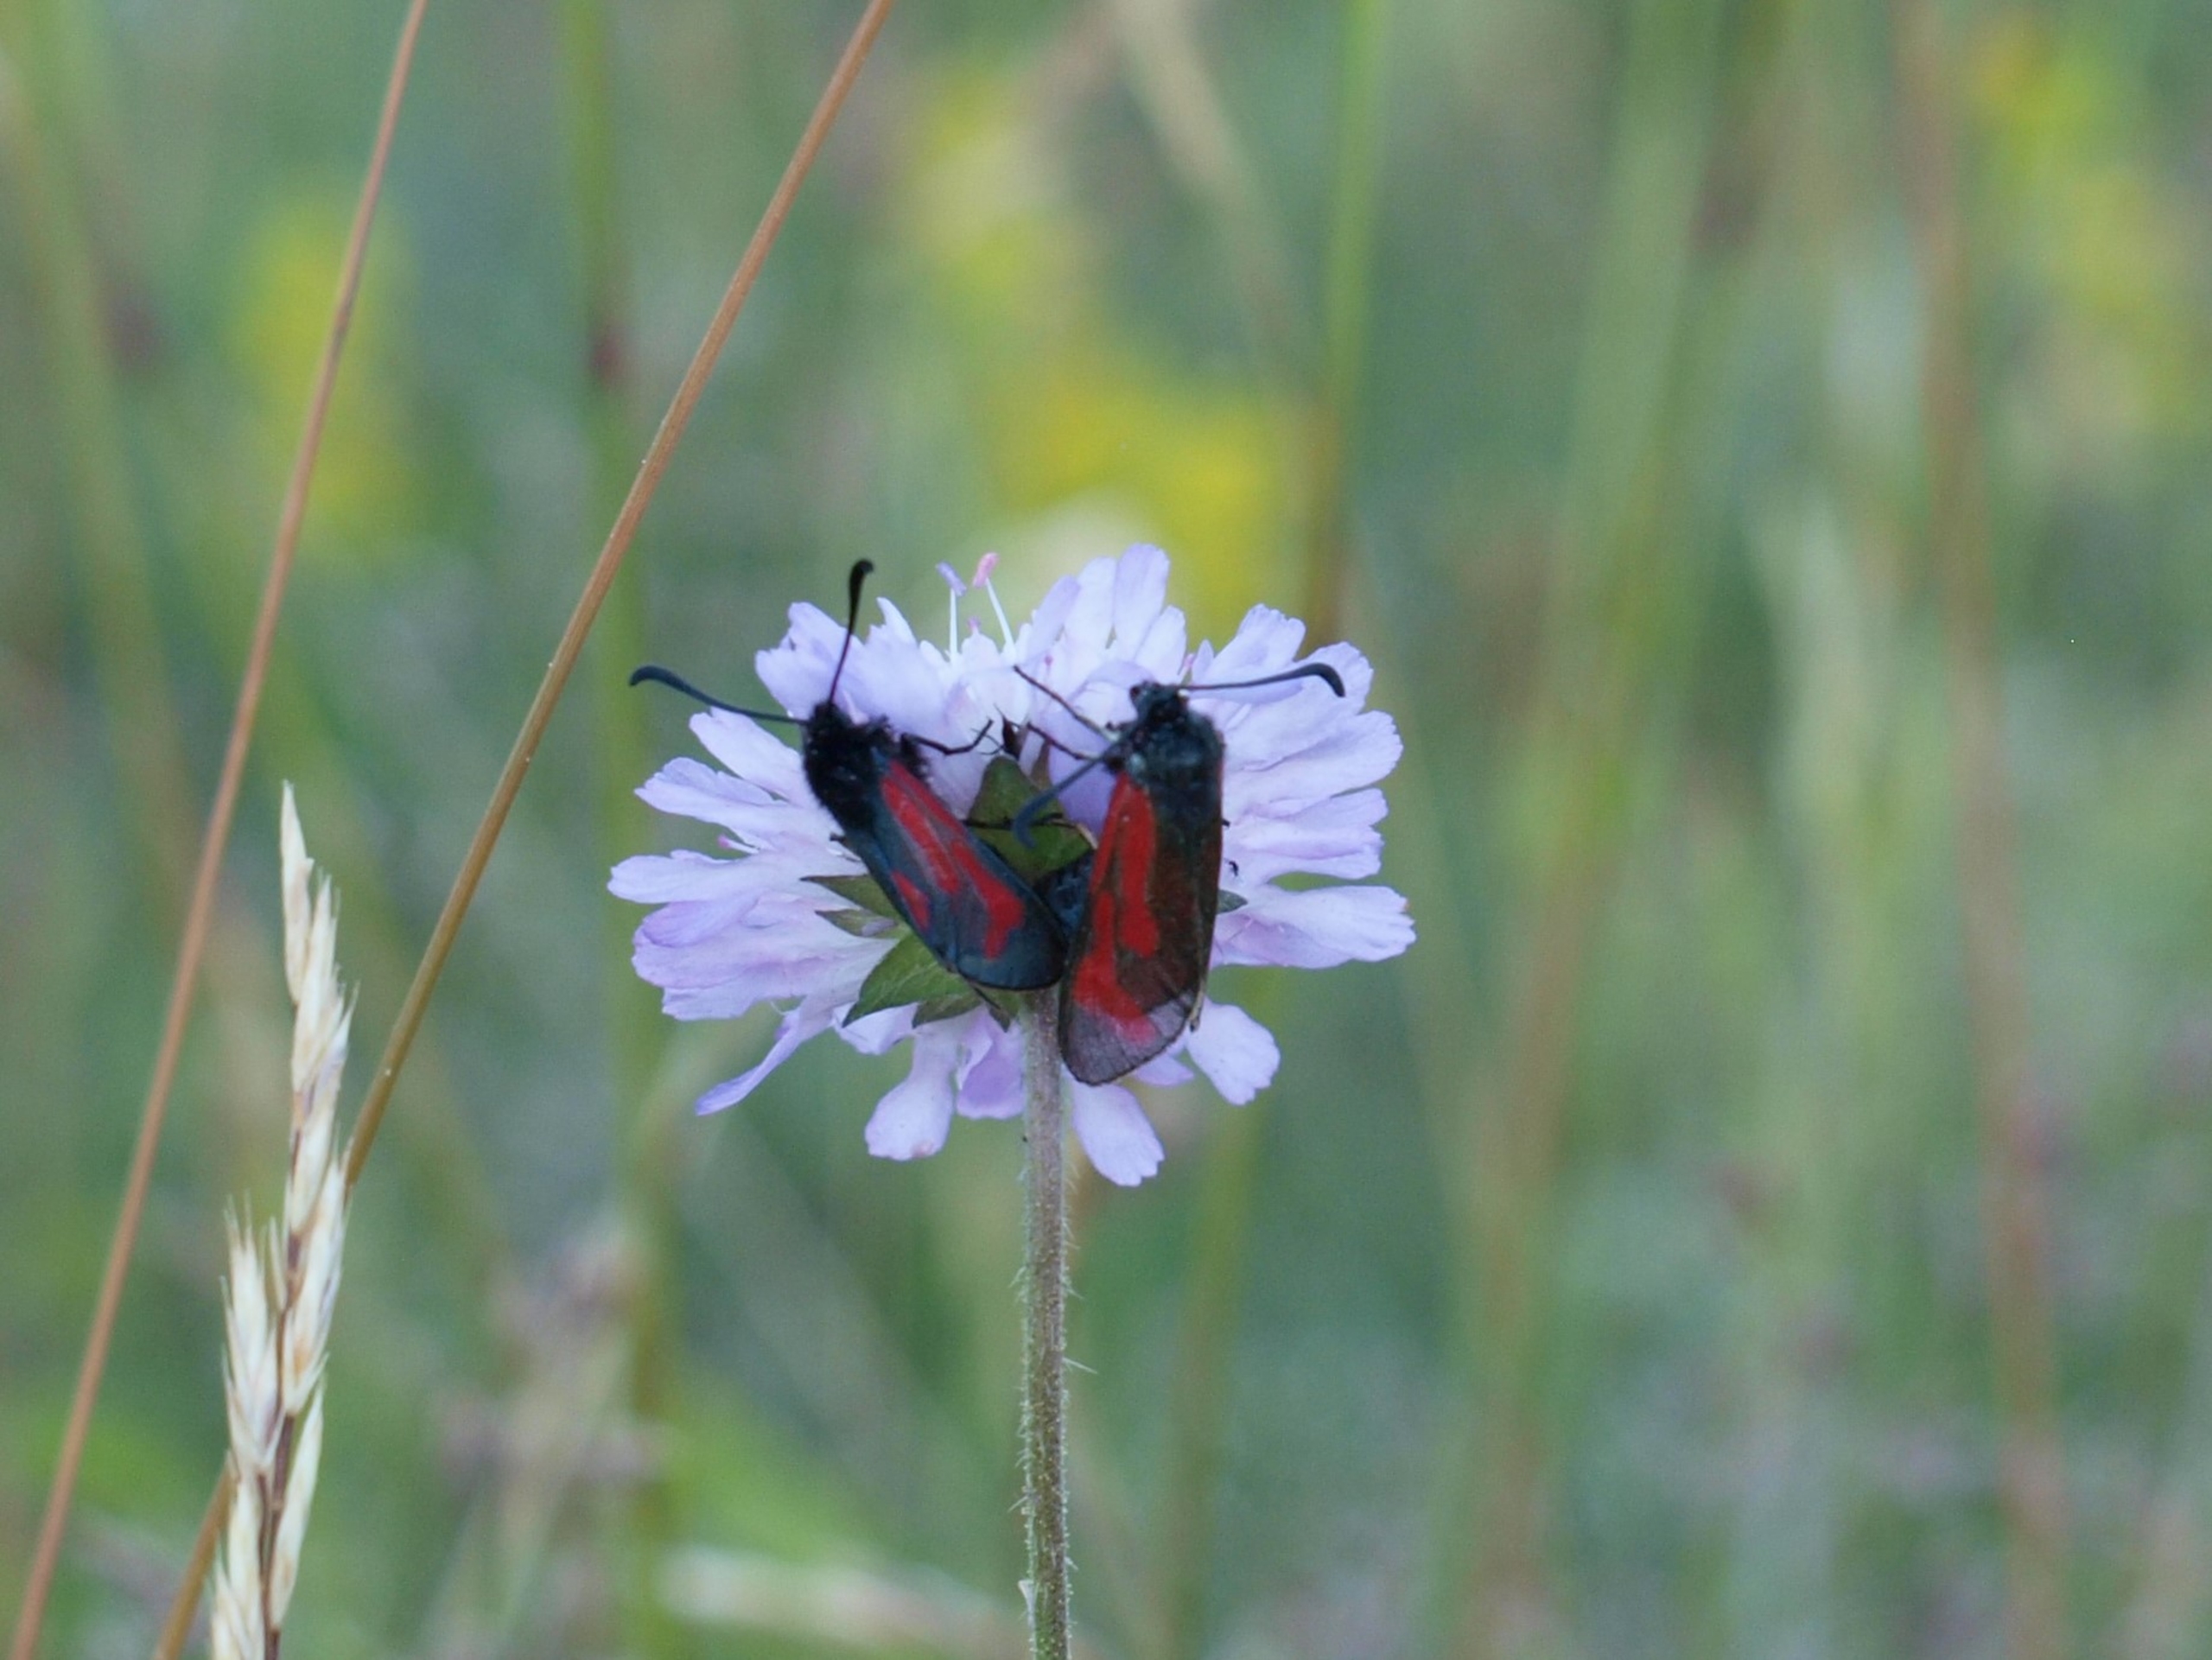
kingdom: Animalia
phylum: Arthropoda
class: Insecta
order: Lepidoptera
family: Zygaenidae
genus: Zygaena
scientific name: Zygaena minos
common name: Pimpernelkøllesværmer
